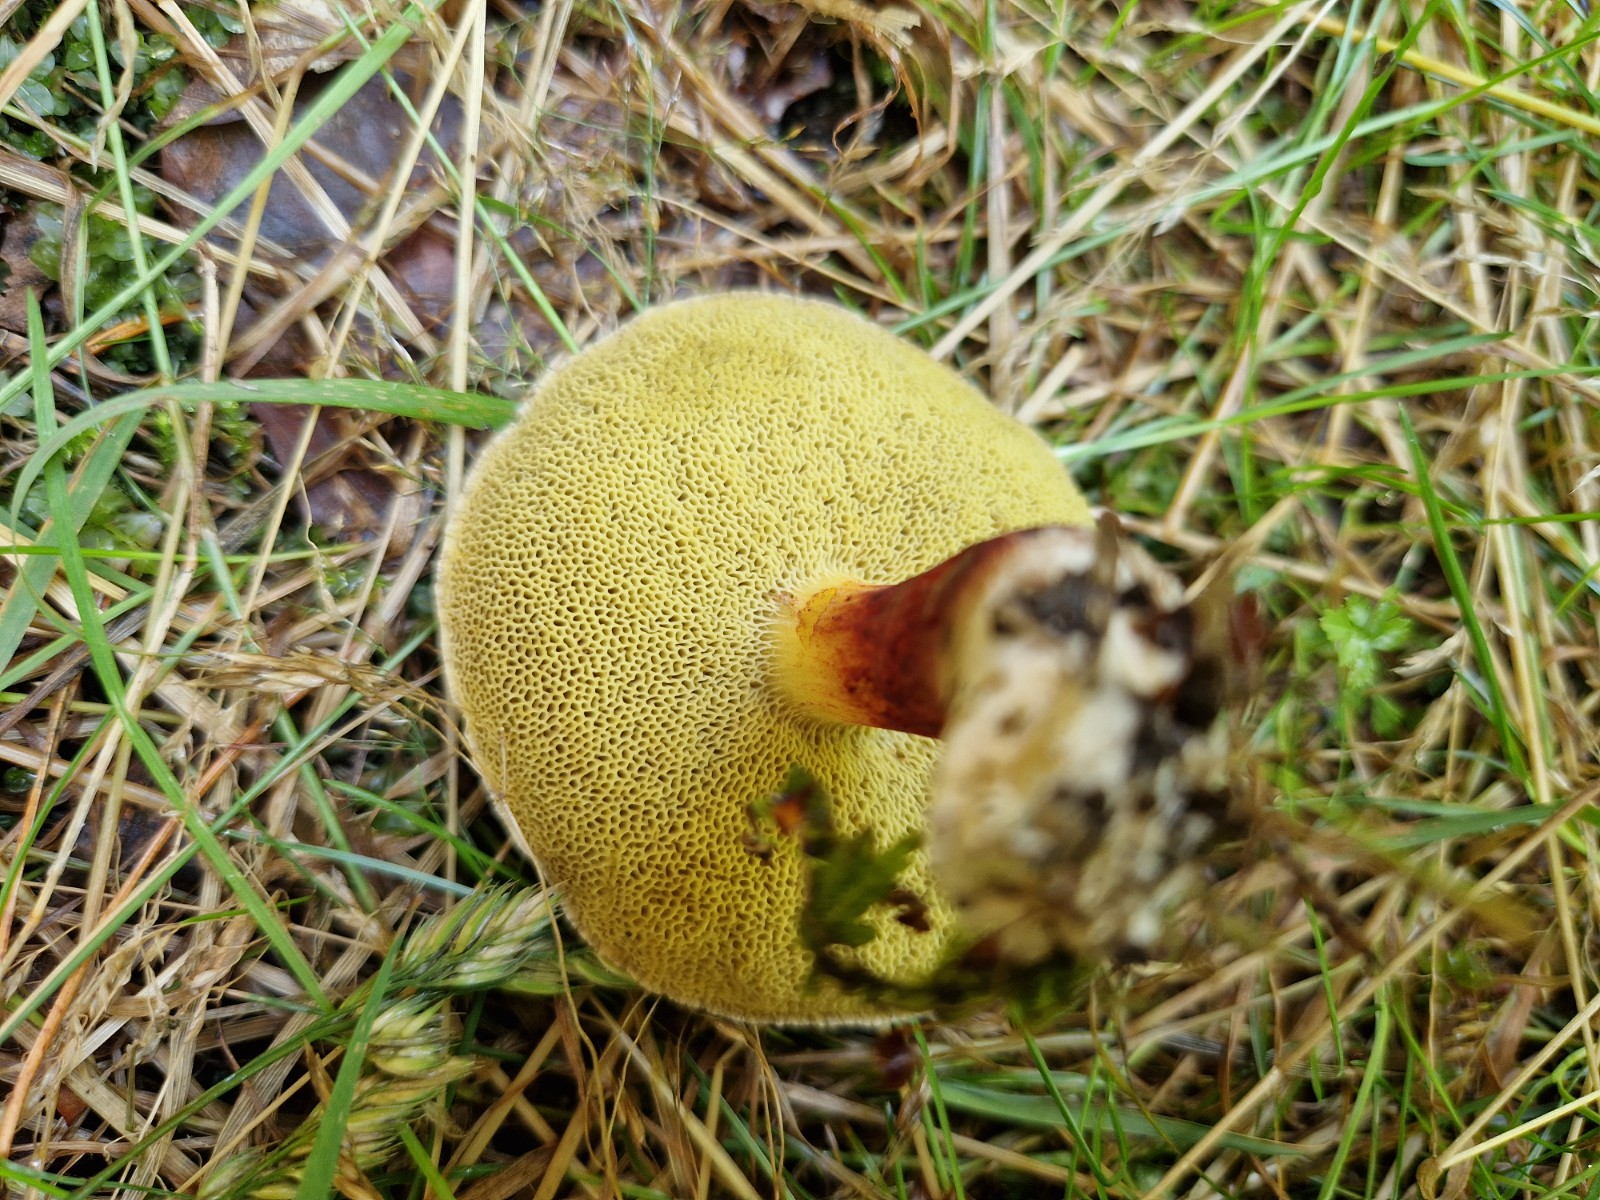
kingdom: Fungi
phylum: Basidiomycota
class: Agaricomycetes
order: Boletales
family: Boletaceae
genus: Xerocomellus
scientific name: Xerocomellus
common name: dværgrørhat
